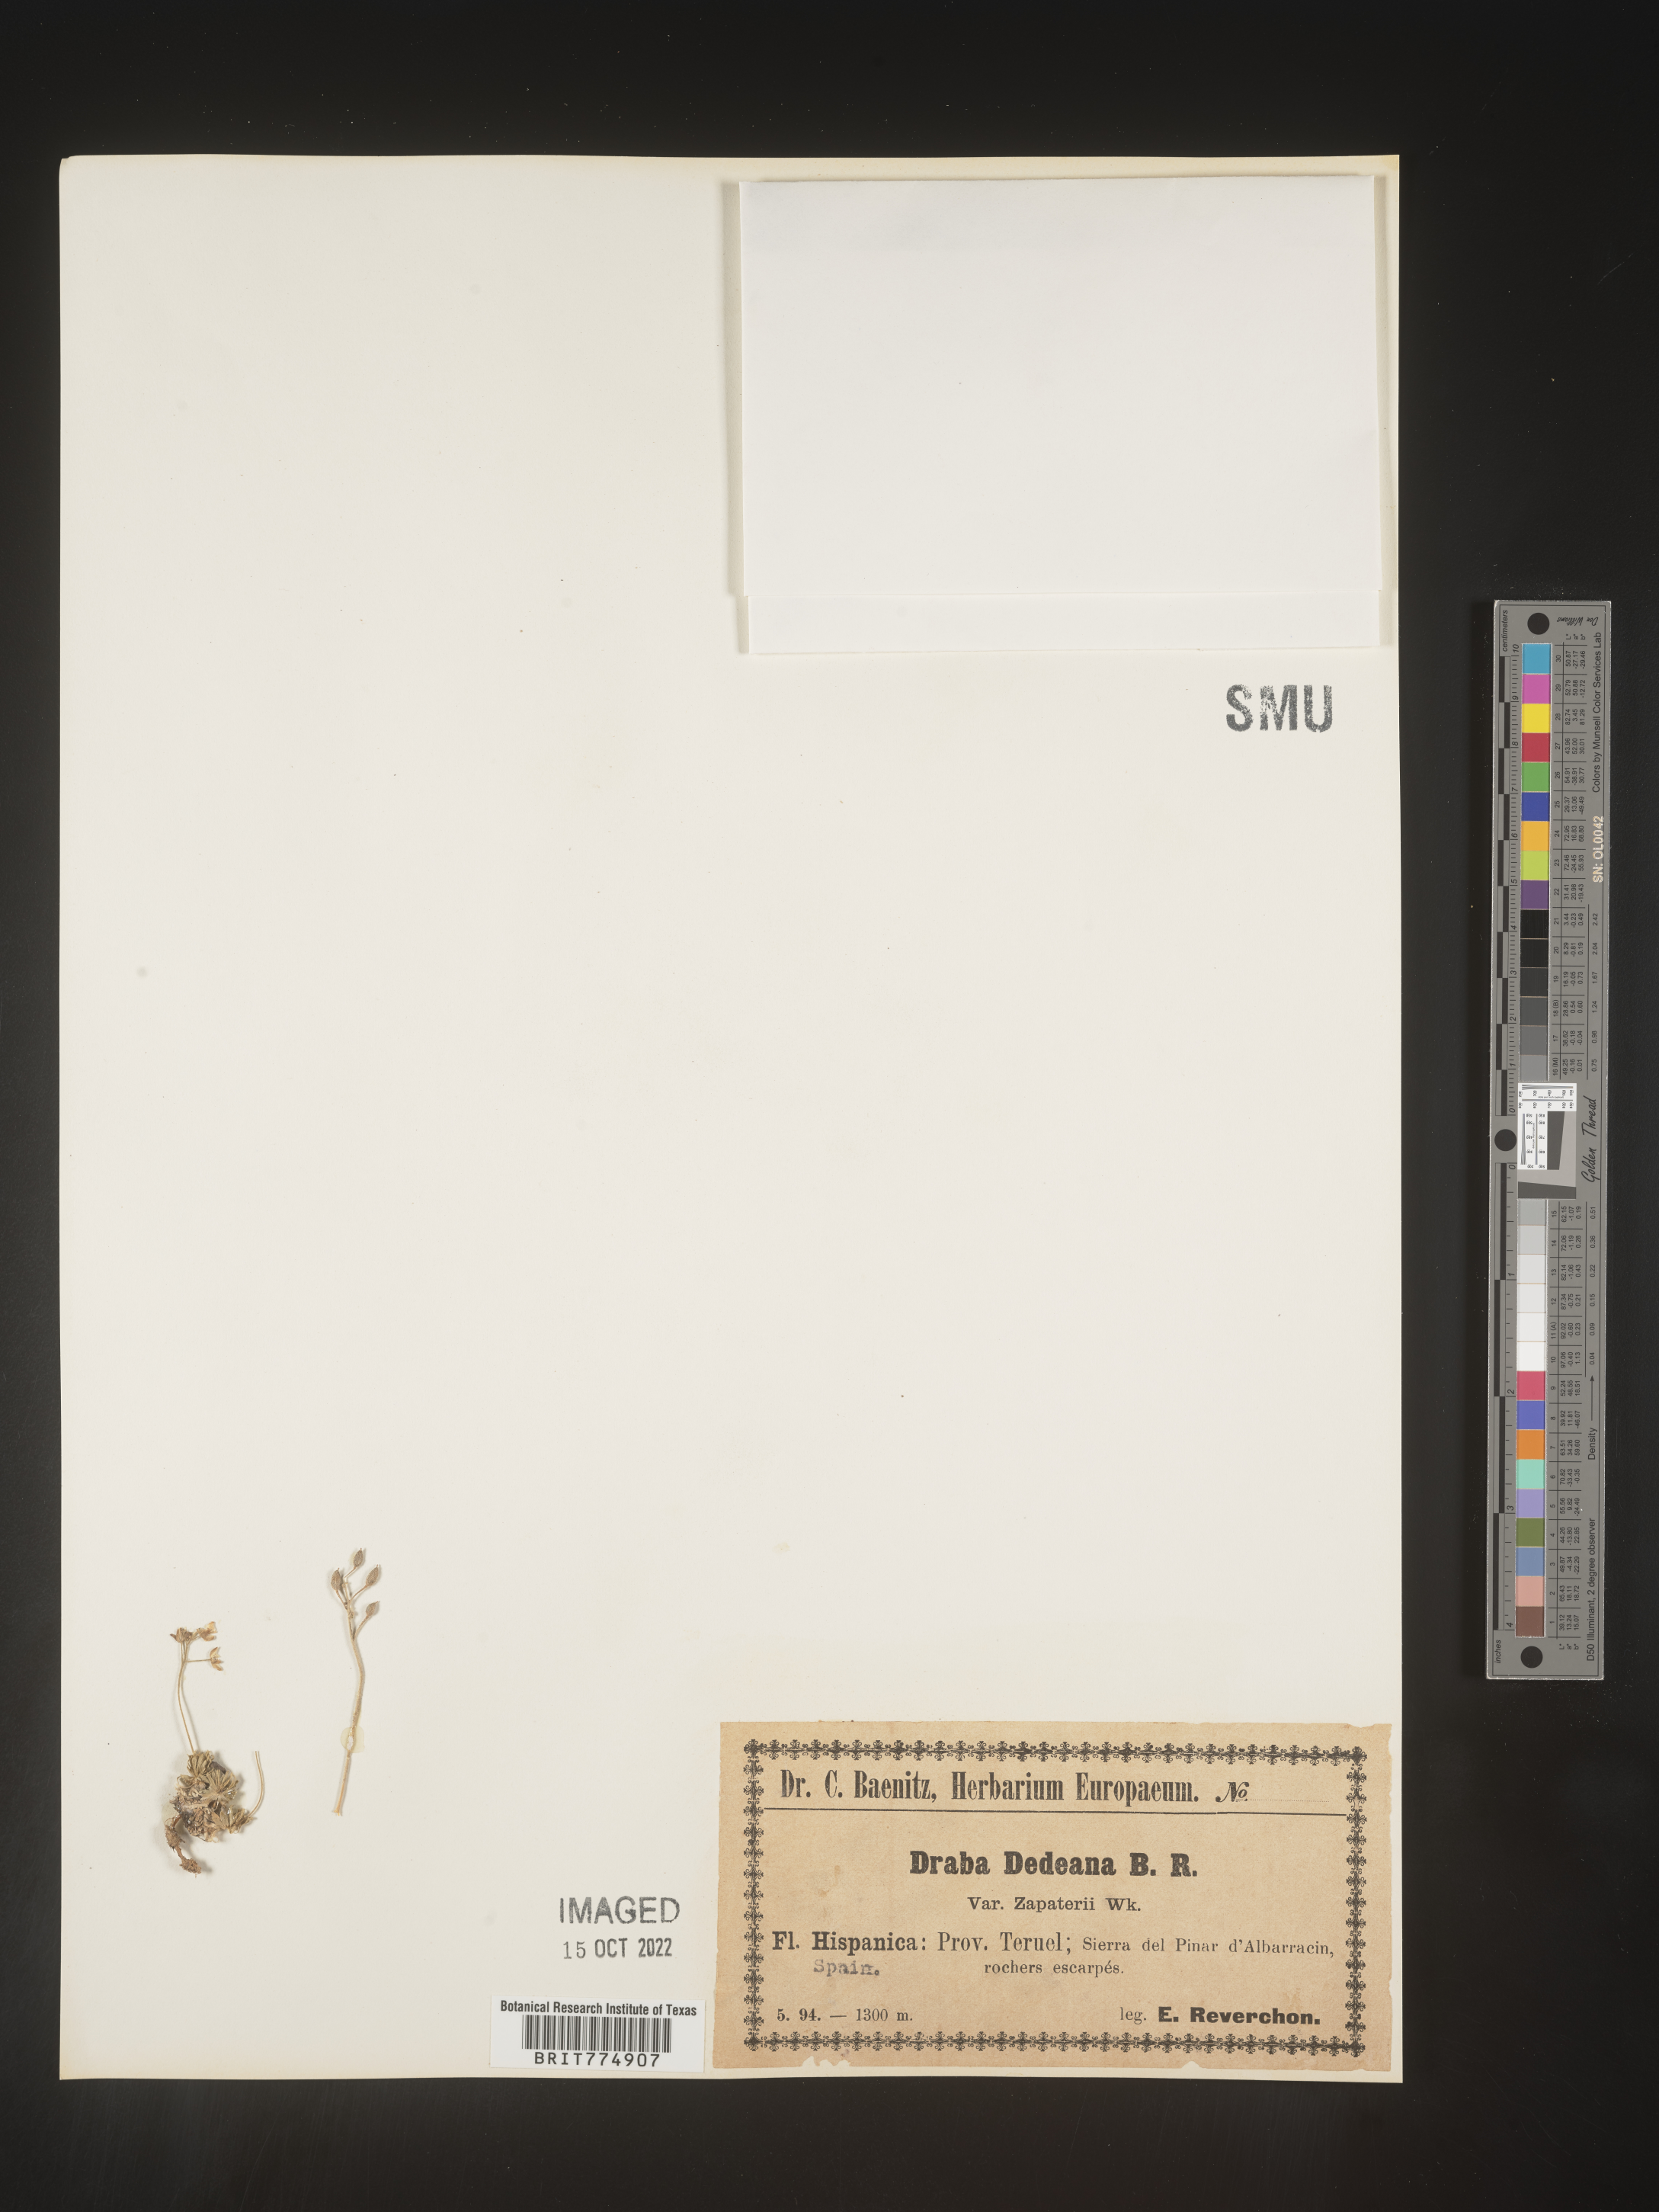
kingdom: Plantae
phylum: Tracheophyta
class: Magnoliopsida
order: Brassicales
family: Brassicaceae
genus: Draba
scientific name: Draba
